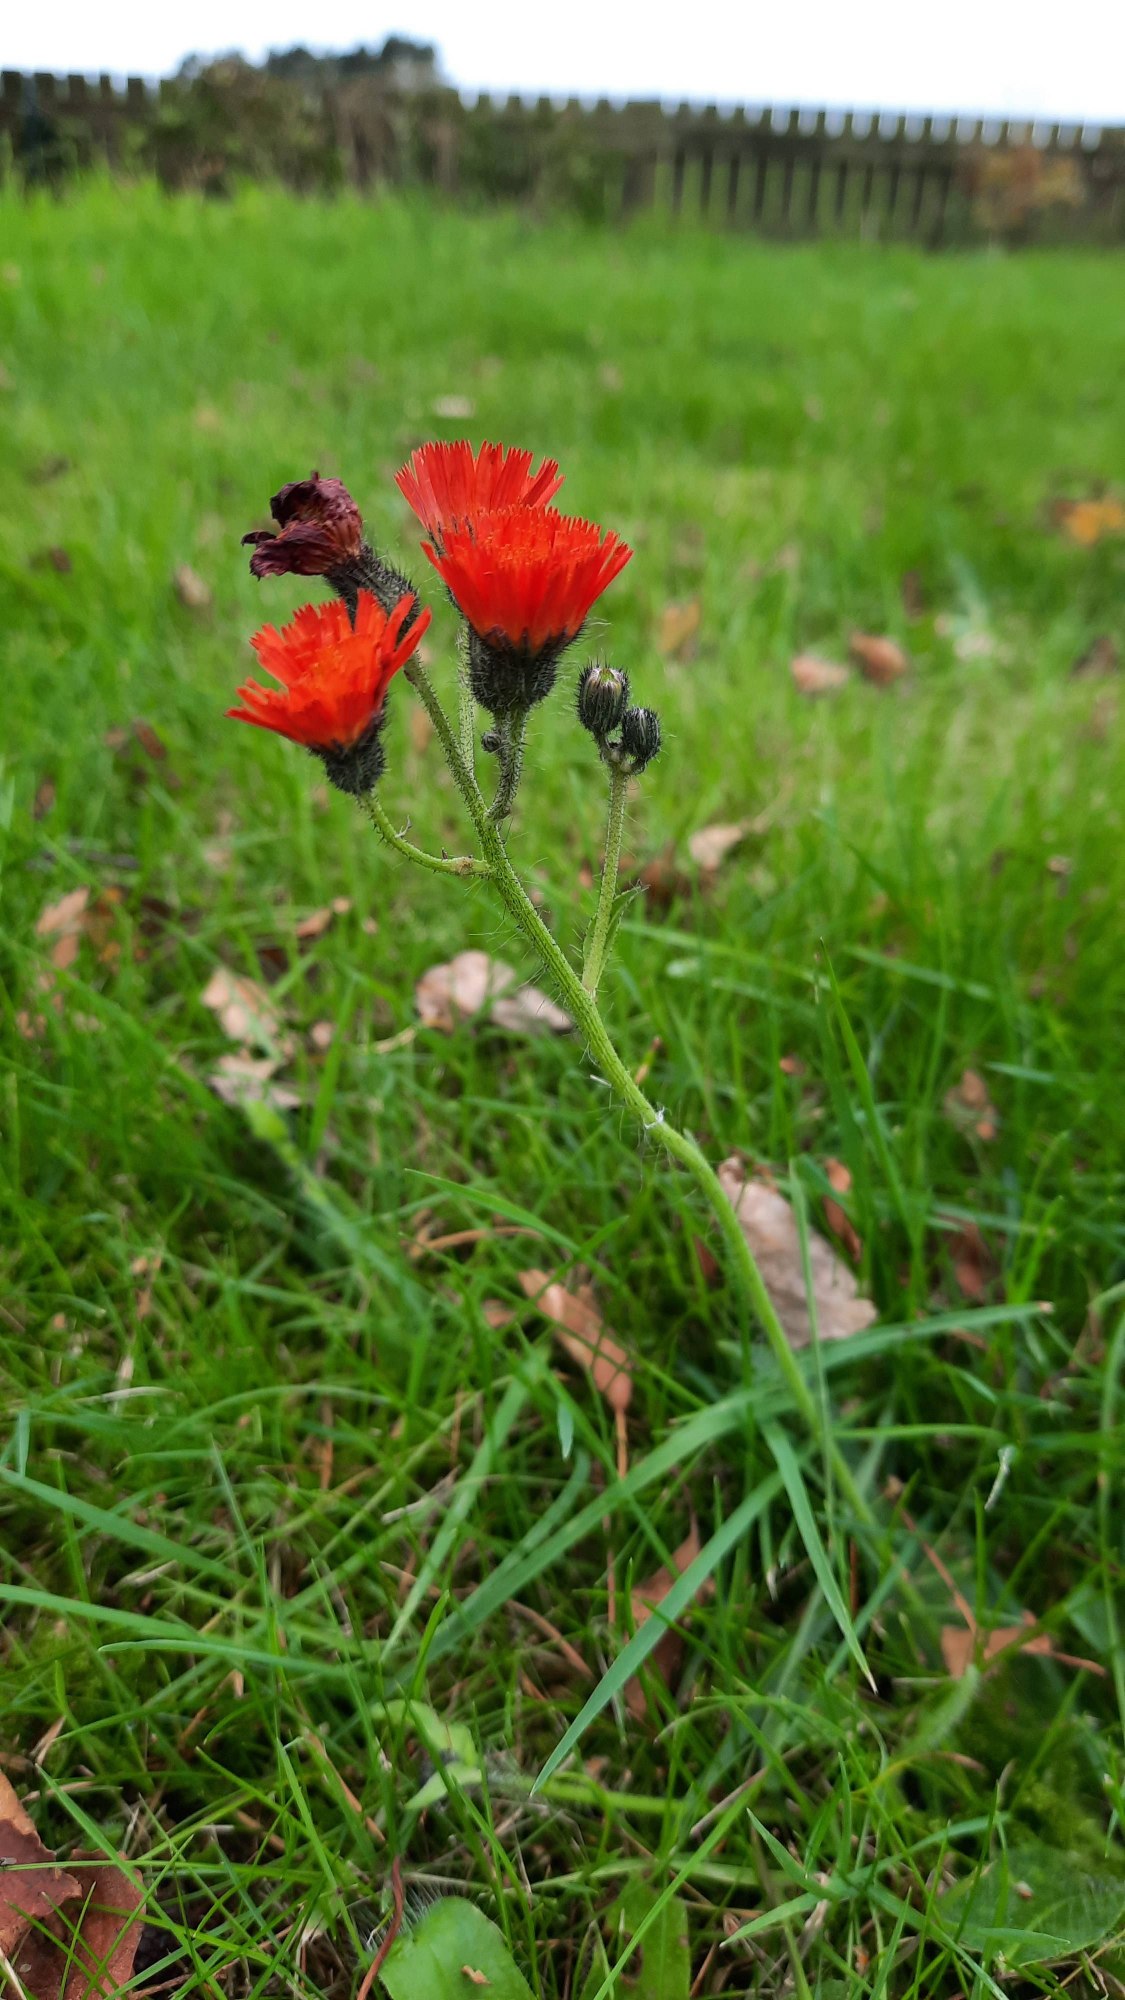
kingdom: Plantae
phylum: Tracheophyta
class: Magnoliopsida
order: Asterales
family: Asteraceae
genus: Pilosella
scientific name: Pilosella aurantiaca
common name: Pomerans-høgeurt
